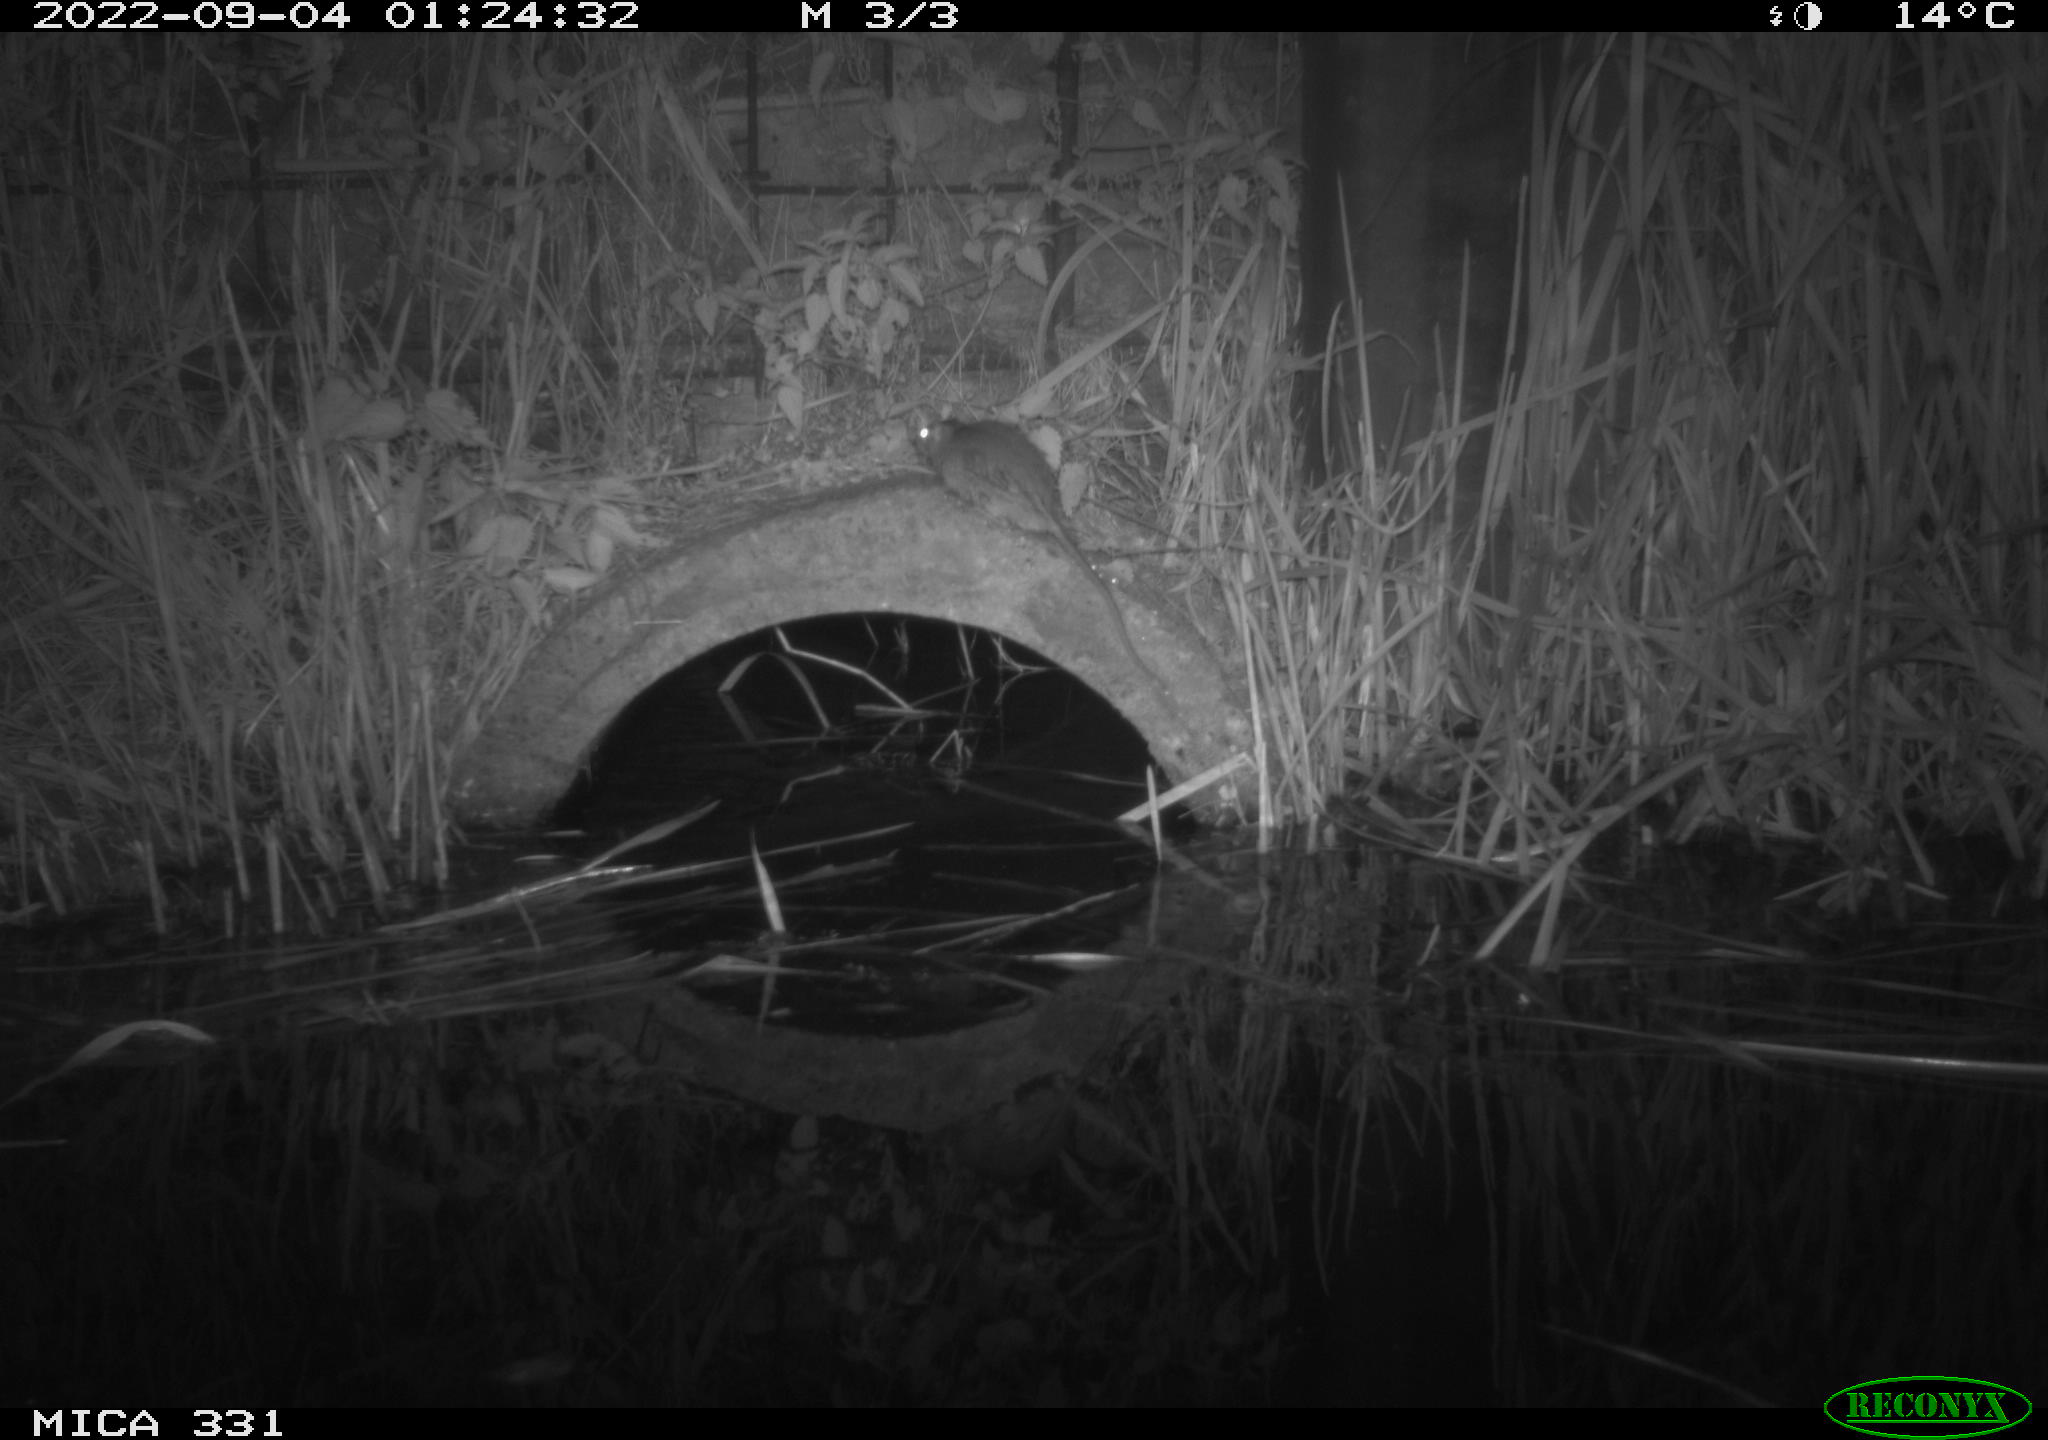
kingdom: Animalia
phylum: Chordata
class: Mammalia
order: Rodentia
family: Muridae
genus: Rattus
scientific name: Rattus norvegicus
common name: Brown rat
